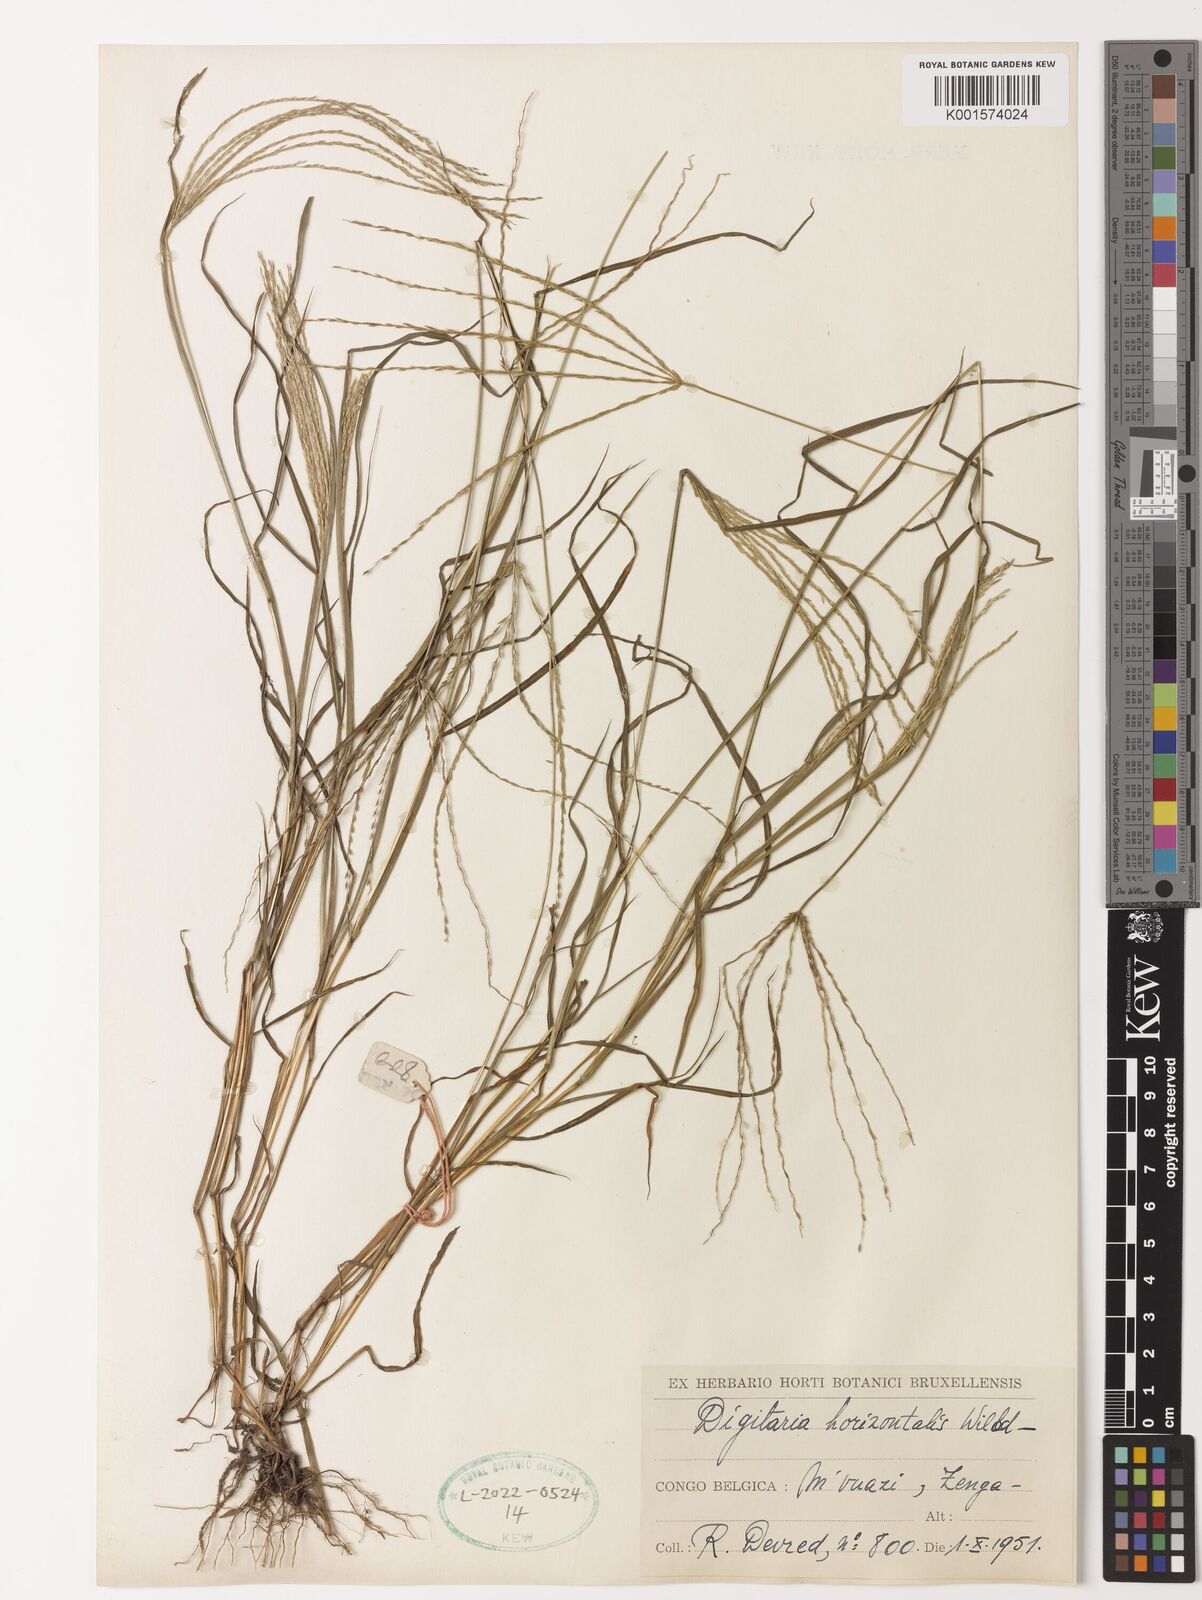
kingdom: Plantae
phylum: Tracheophyta
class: Liliopsida
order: Poales
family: Poaceae
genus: Digitaria
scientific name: Digitaria nuda
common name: Naked crabgrass
